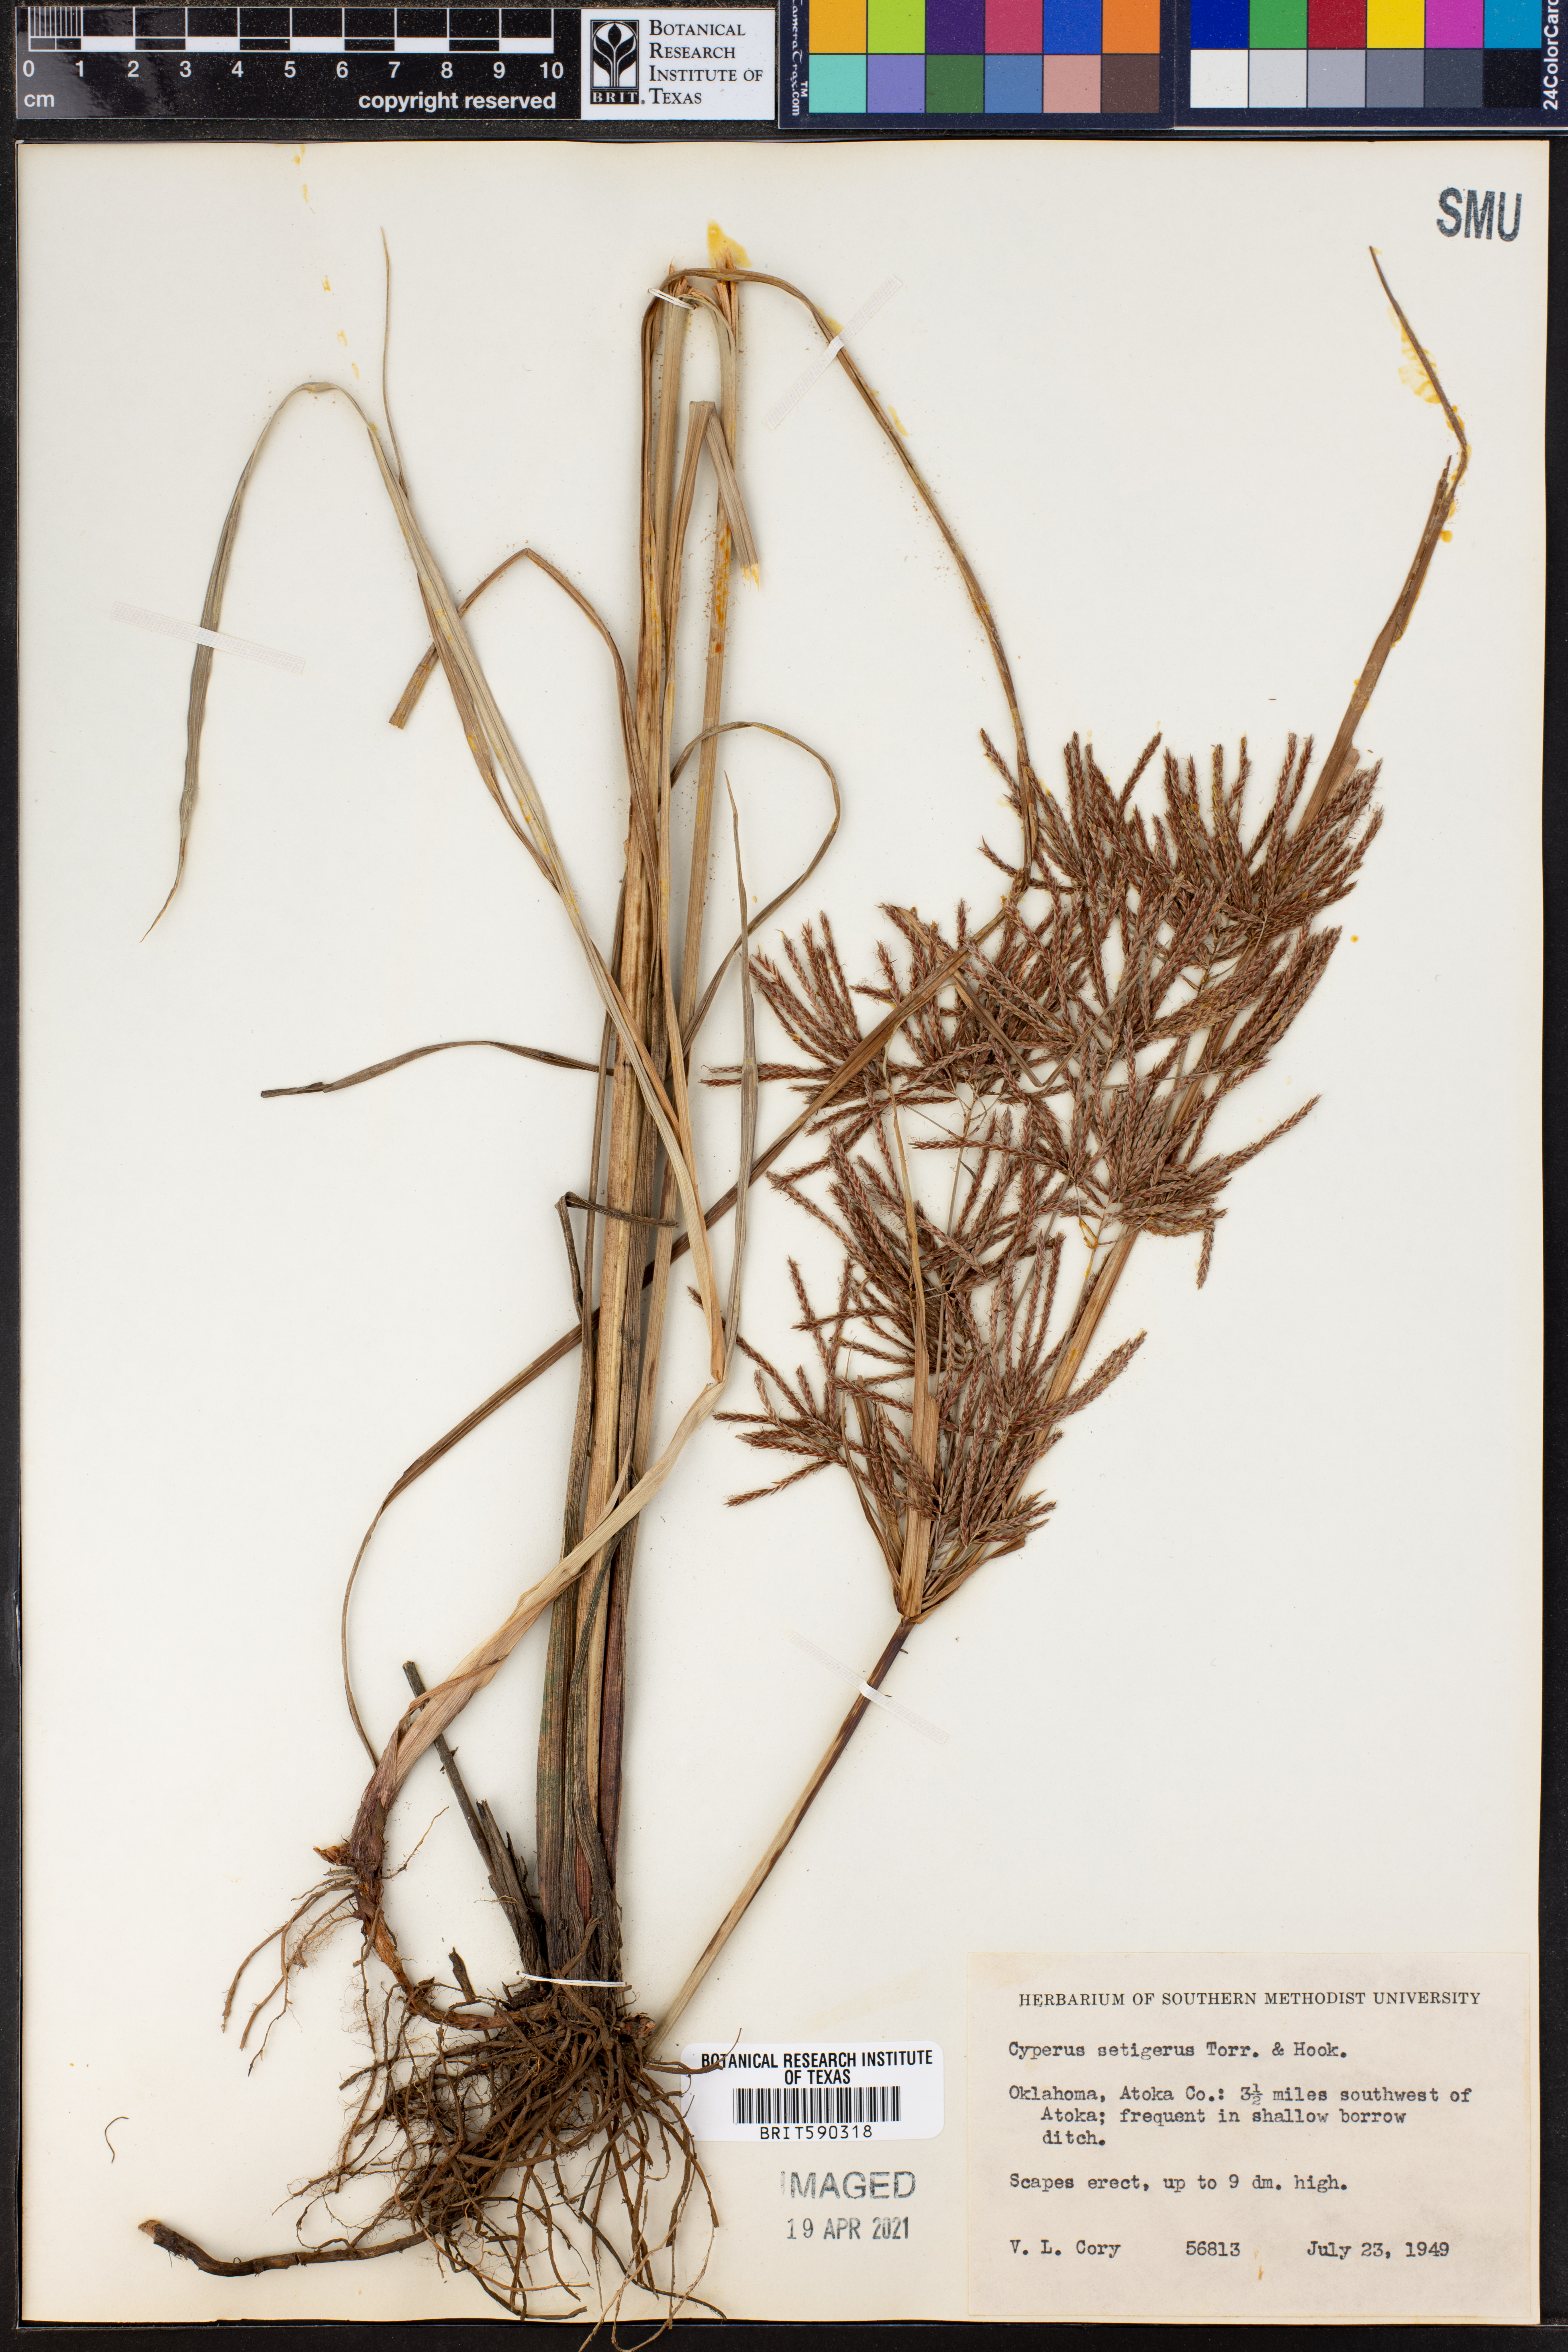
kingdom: Plantae
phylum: Tracheophyta
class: Liliopsida
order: Poales
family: Cyperaceae
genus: Cyperus
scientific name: Cyperus setigerus
